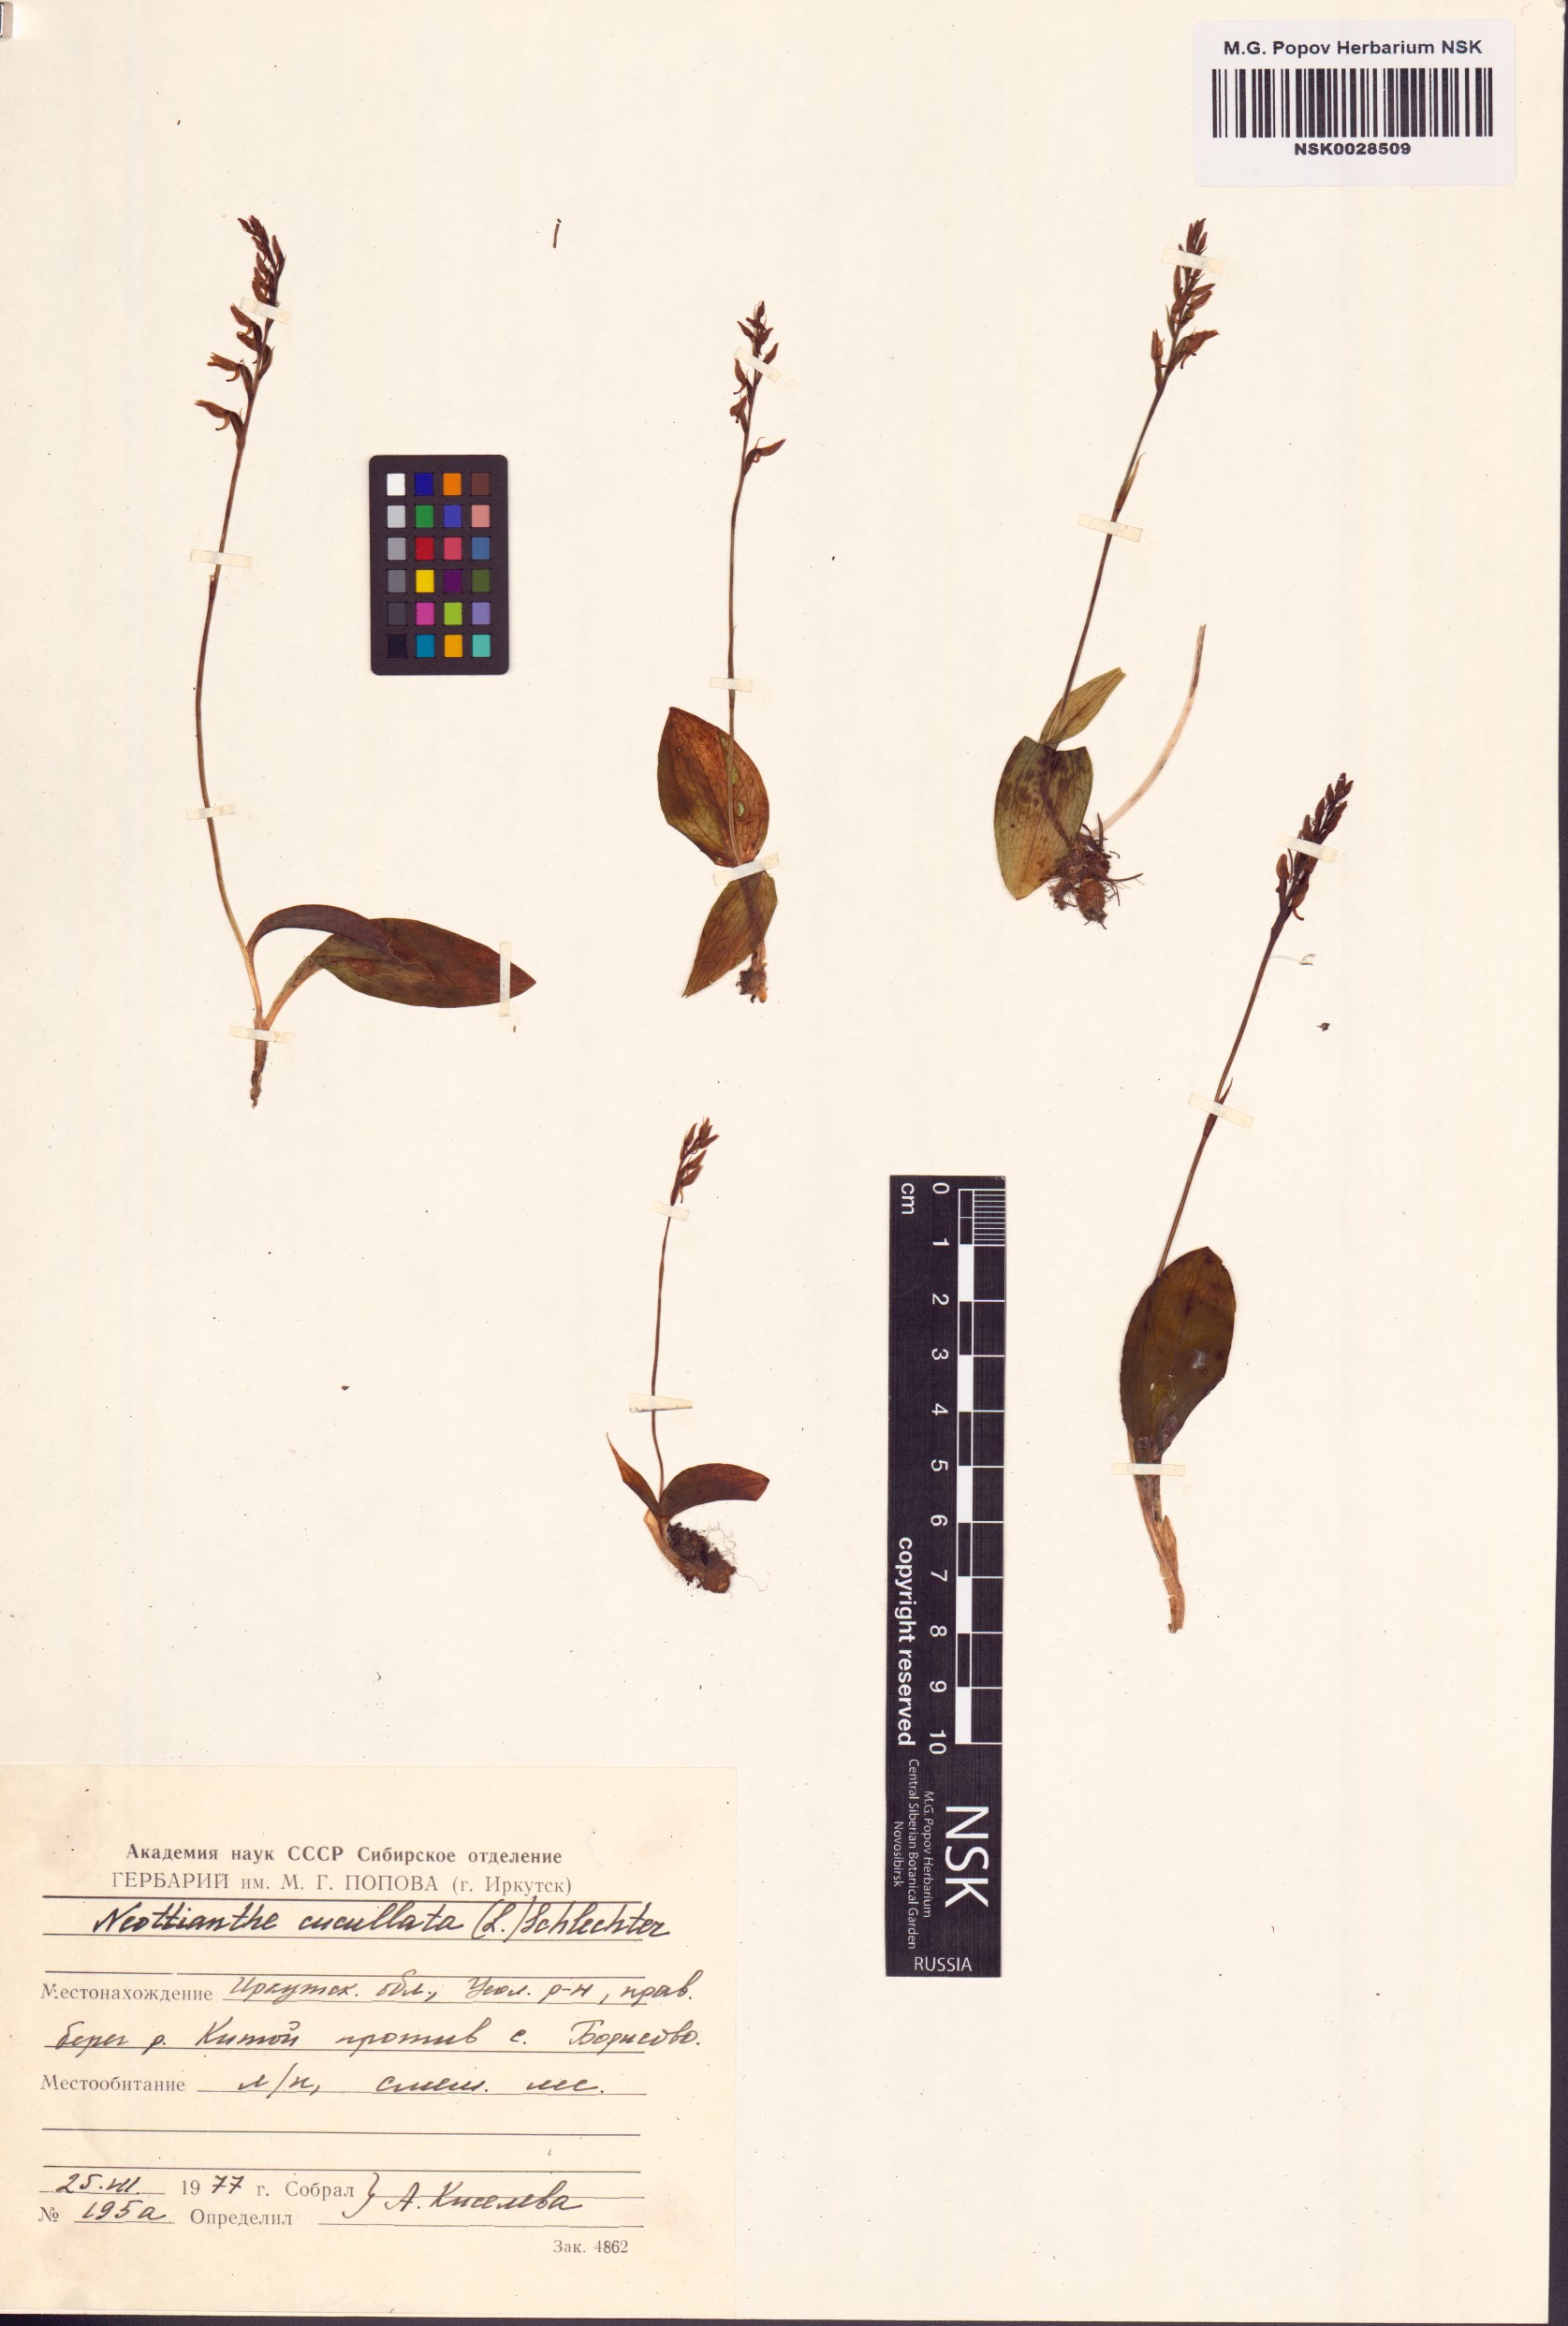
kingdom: Plantae
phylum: Tracheophyta
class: Liliopsida
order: Asparagales
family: Orchidaceae
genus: Hemipilia
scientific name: Hemipilia cucullata
